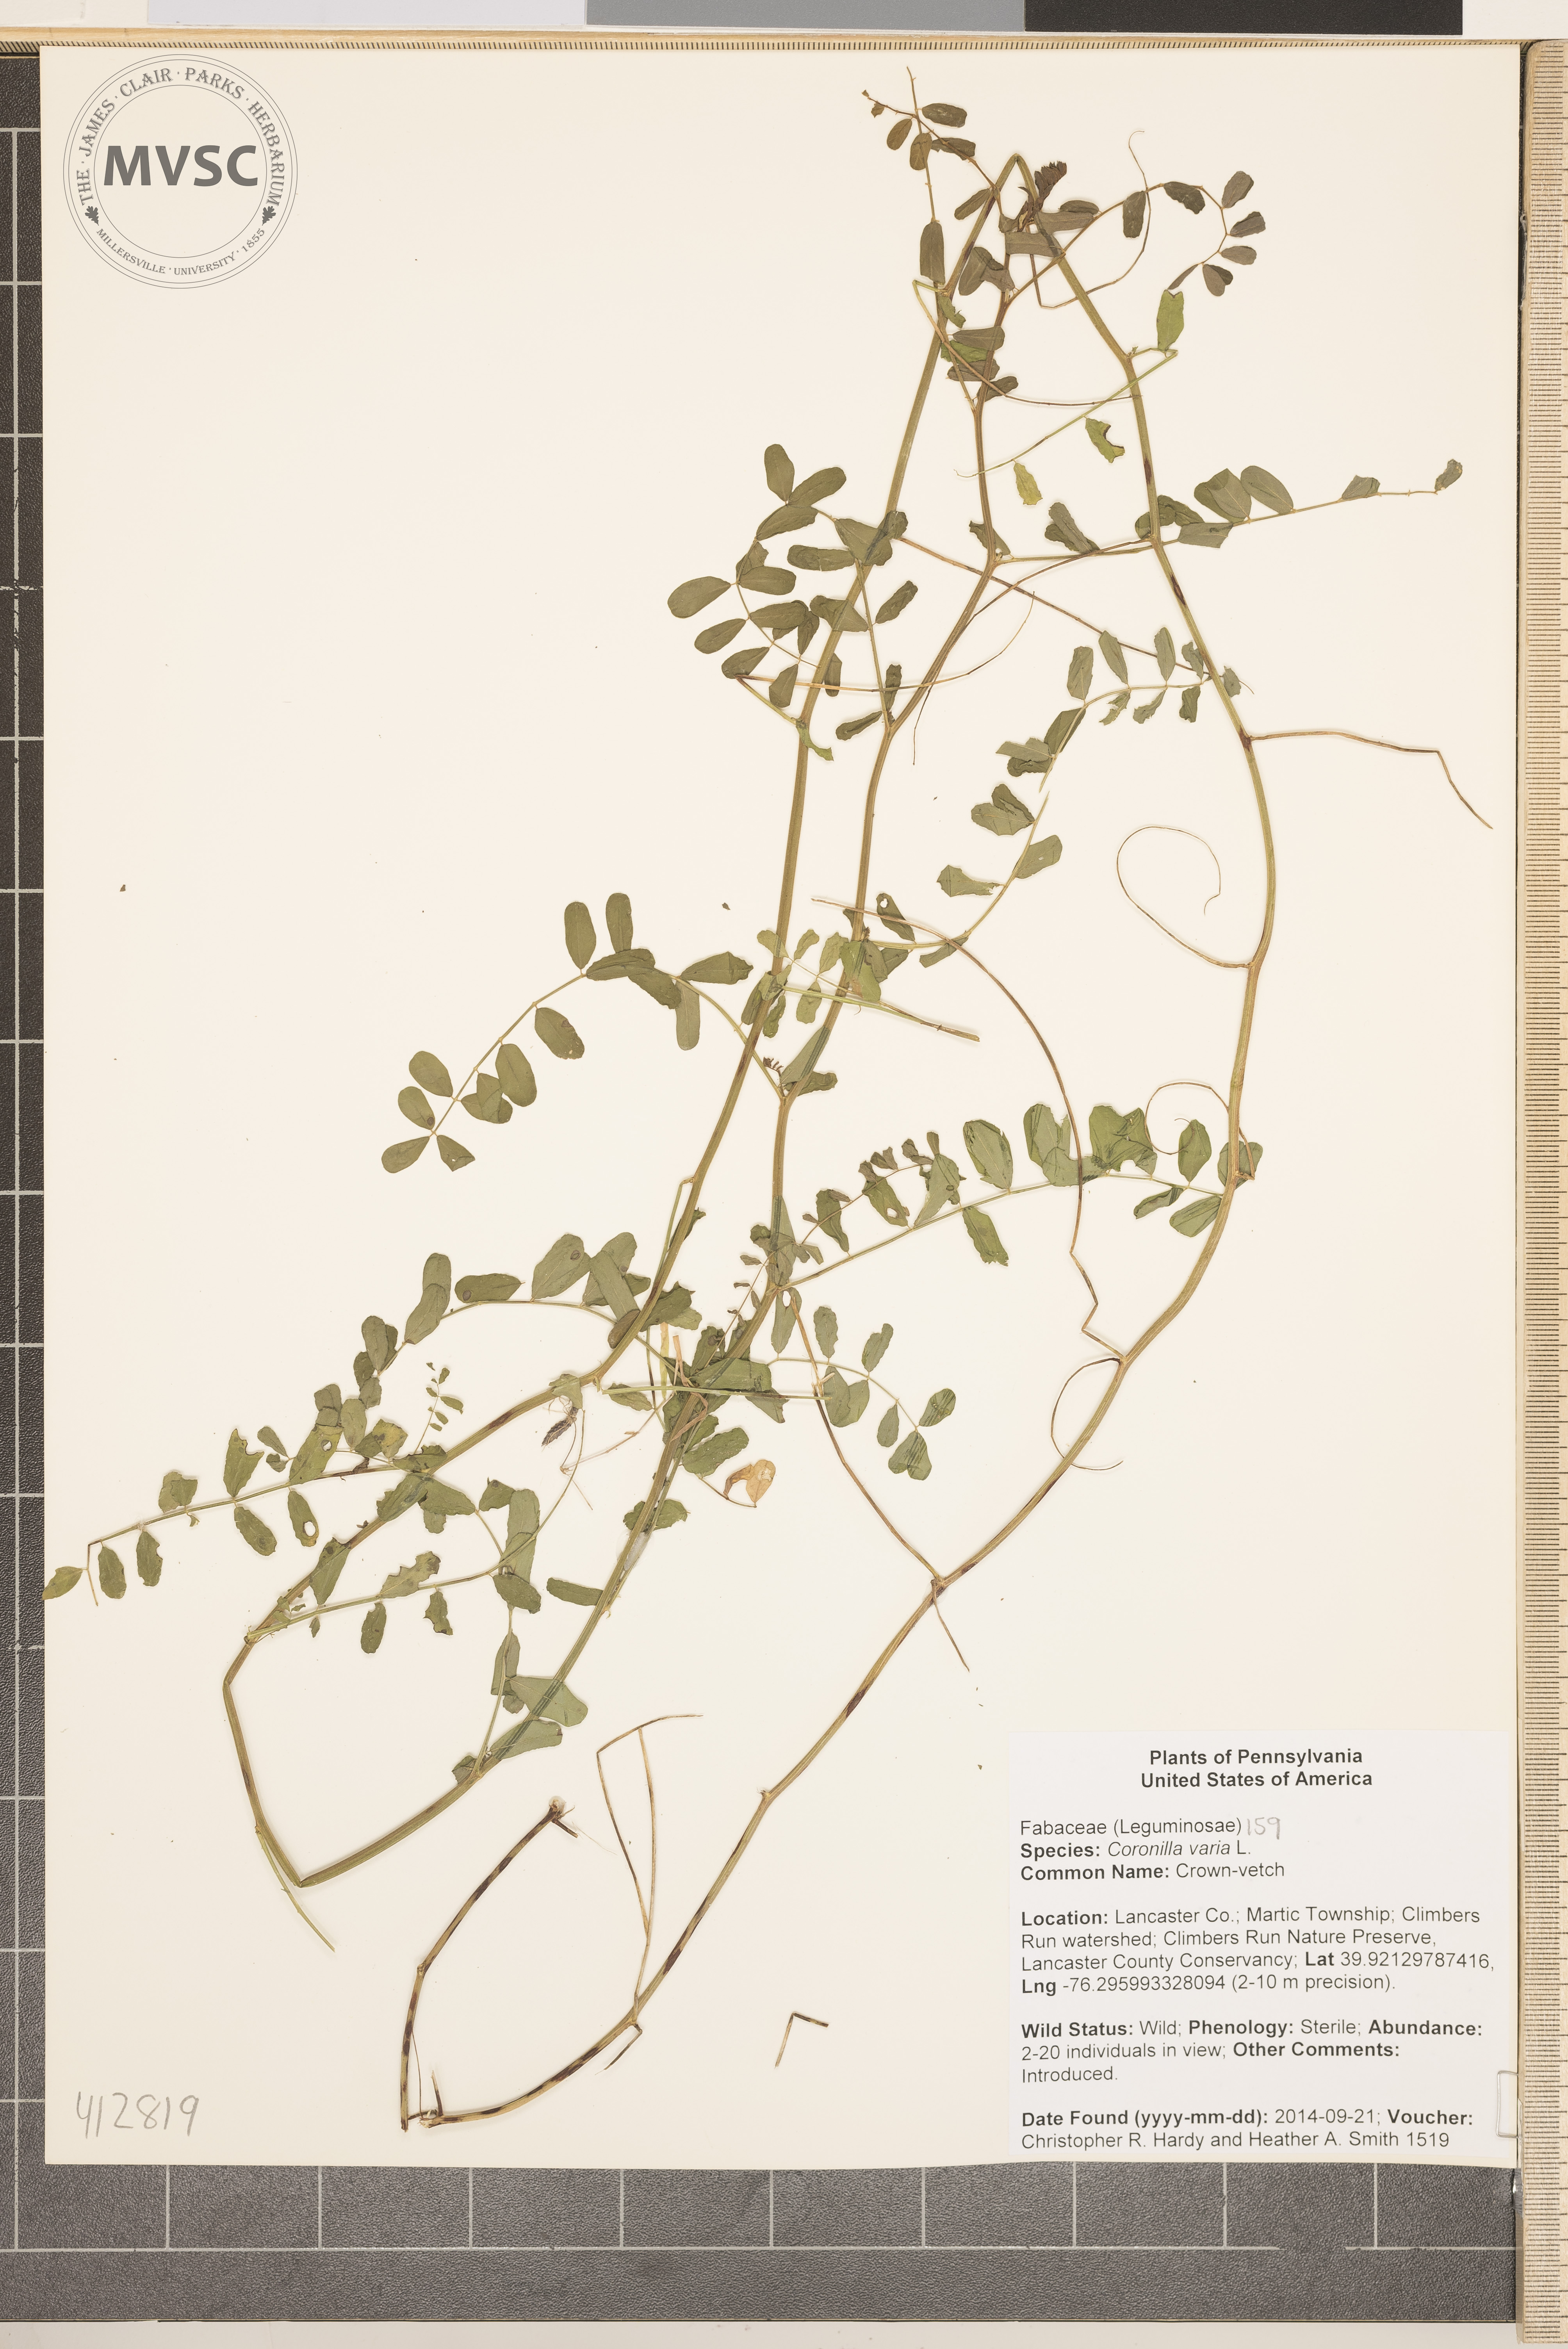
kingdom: Plantae
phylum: Tracheophyta
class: Magnoliopsida
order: Fabales
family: Fabaceae
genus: Coronilla
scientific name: Coronilla varia
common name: crown-vetch
